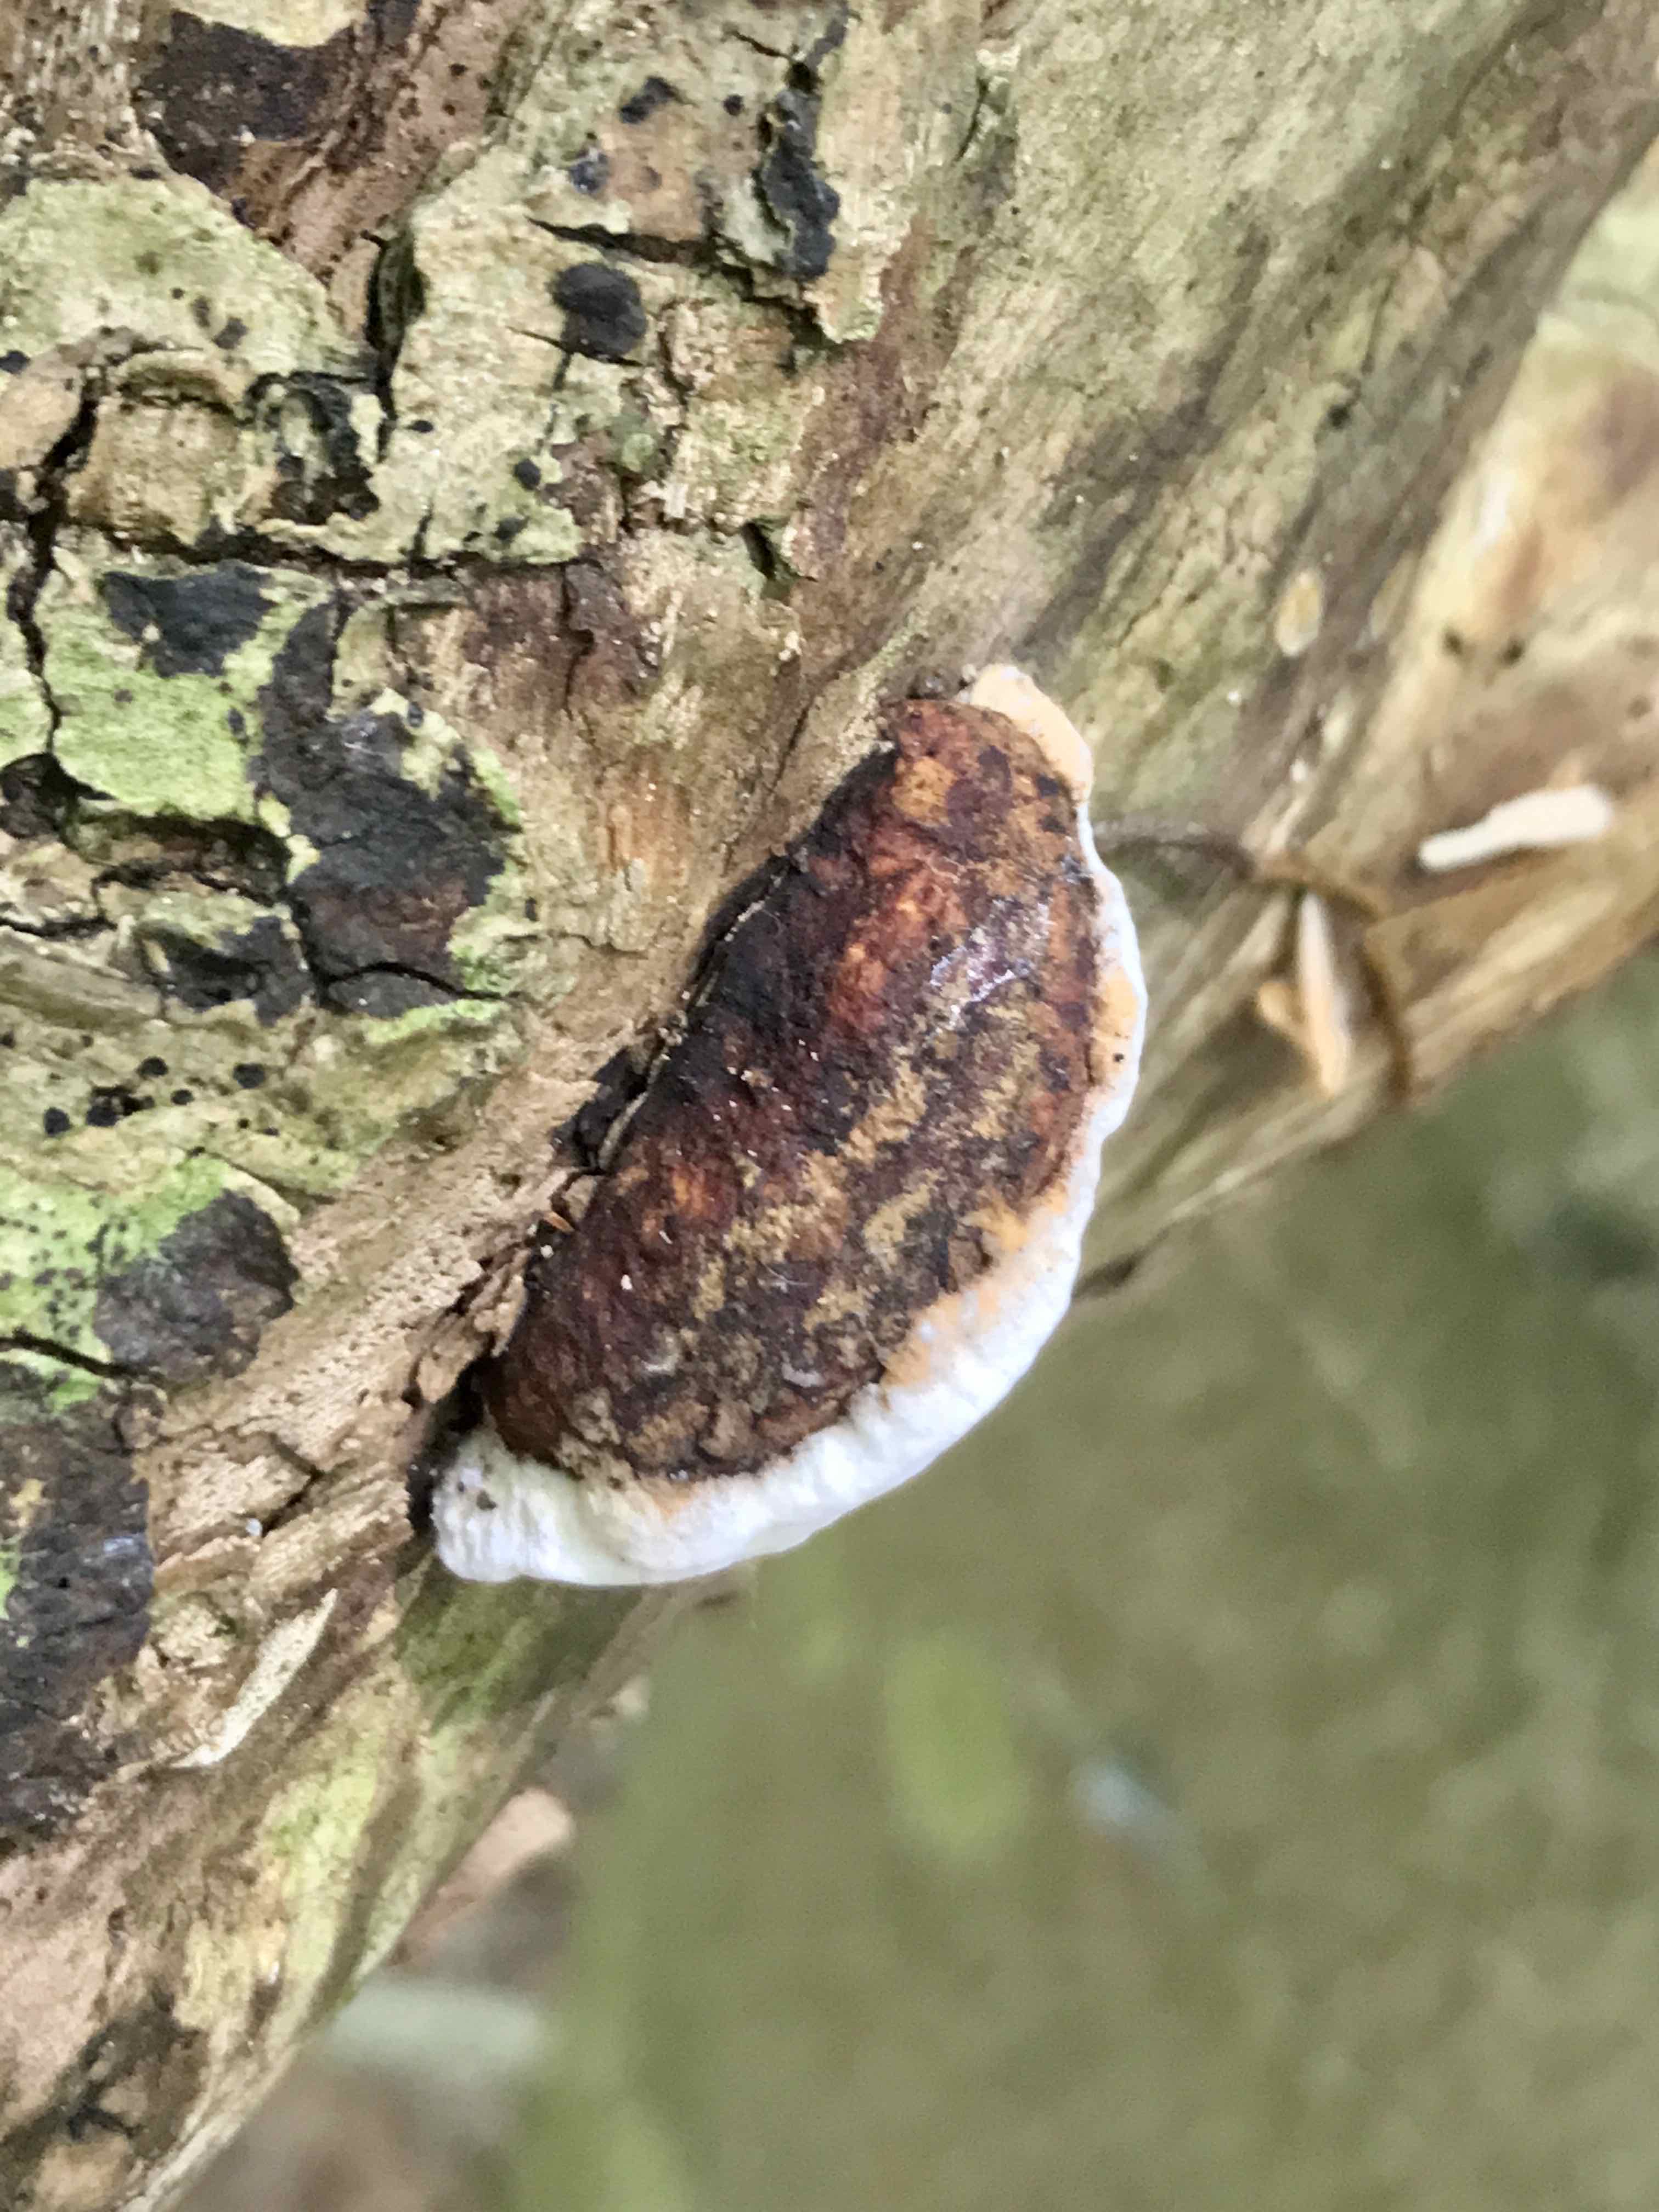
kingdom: Fungi
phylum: Basidiomycota
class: Agaricomycetes
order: Polyporales
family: Incrustoporiaceae
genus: Skeletocutis
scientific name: Skeletocutis nemoralis
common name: stor krystalporesvamp
